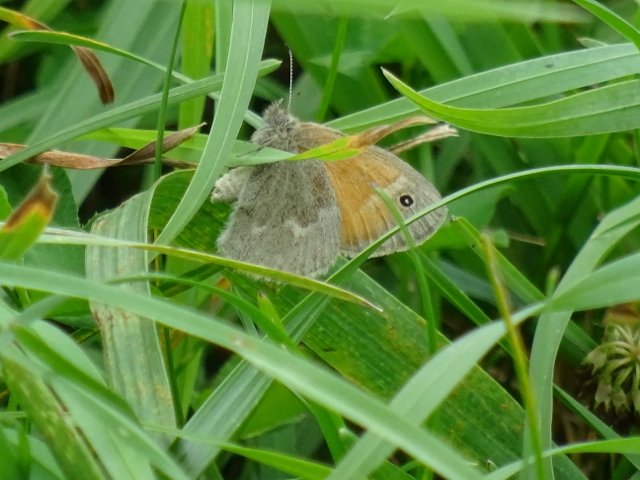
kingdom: Animalia
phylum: Arthropoda
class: Insecta
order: Lepidoptera
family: Nymphalidae
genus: Coenonympha
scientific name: Coenonympha tullia
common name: Large Heath
